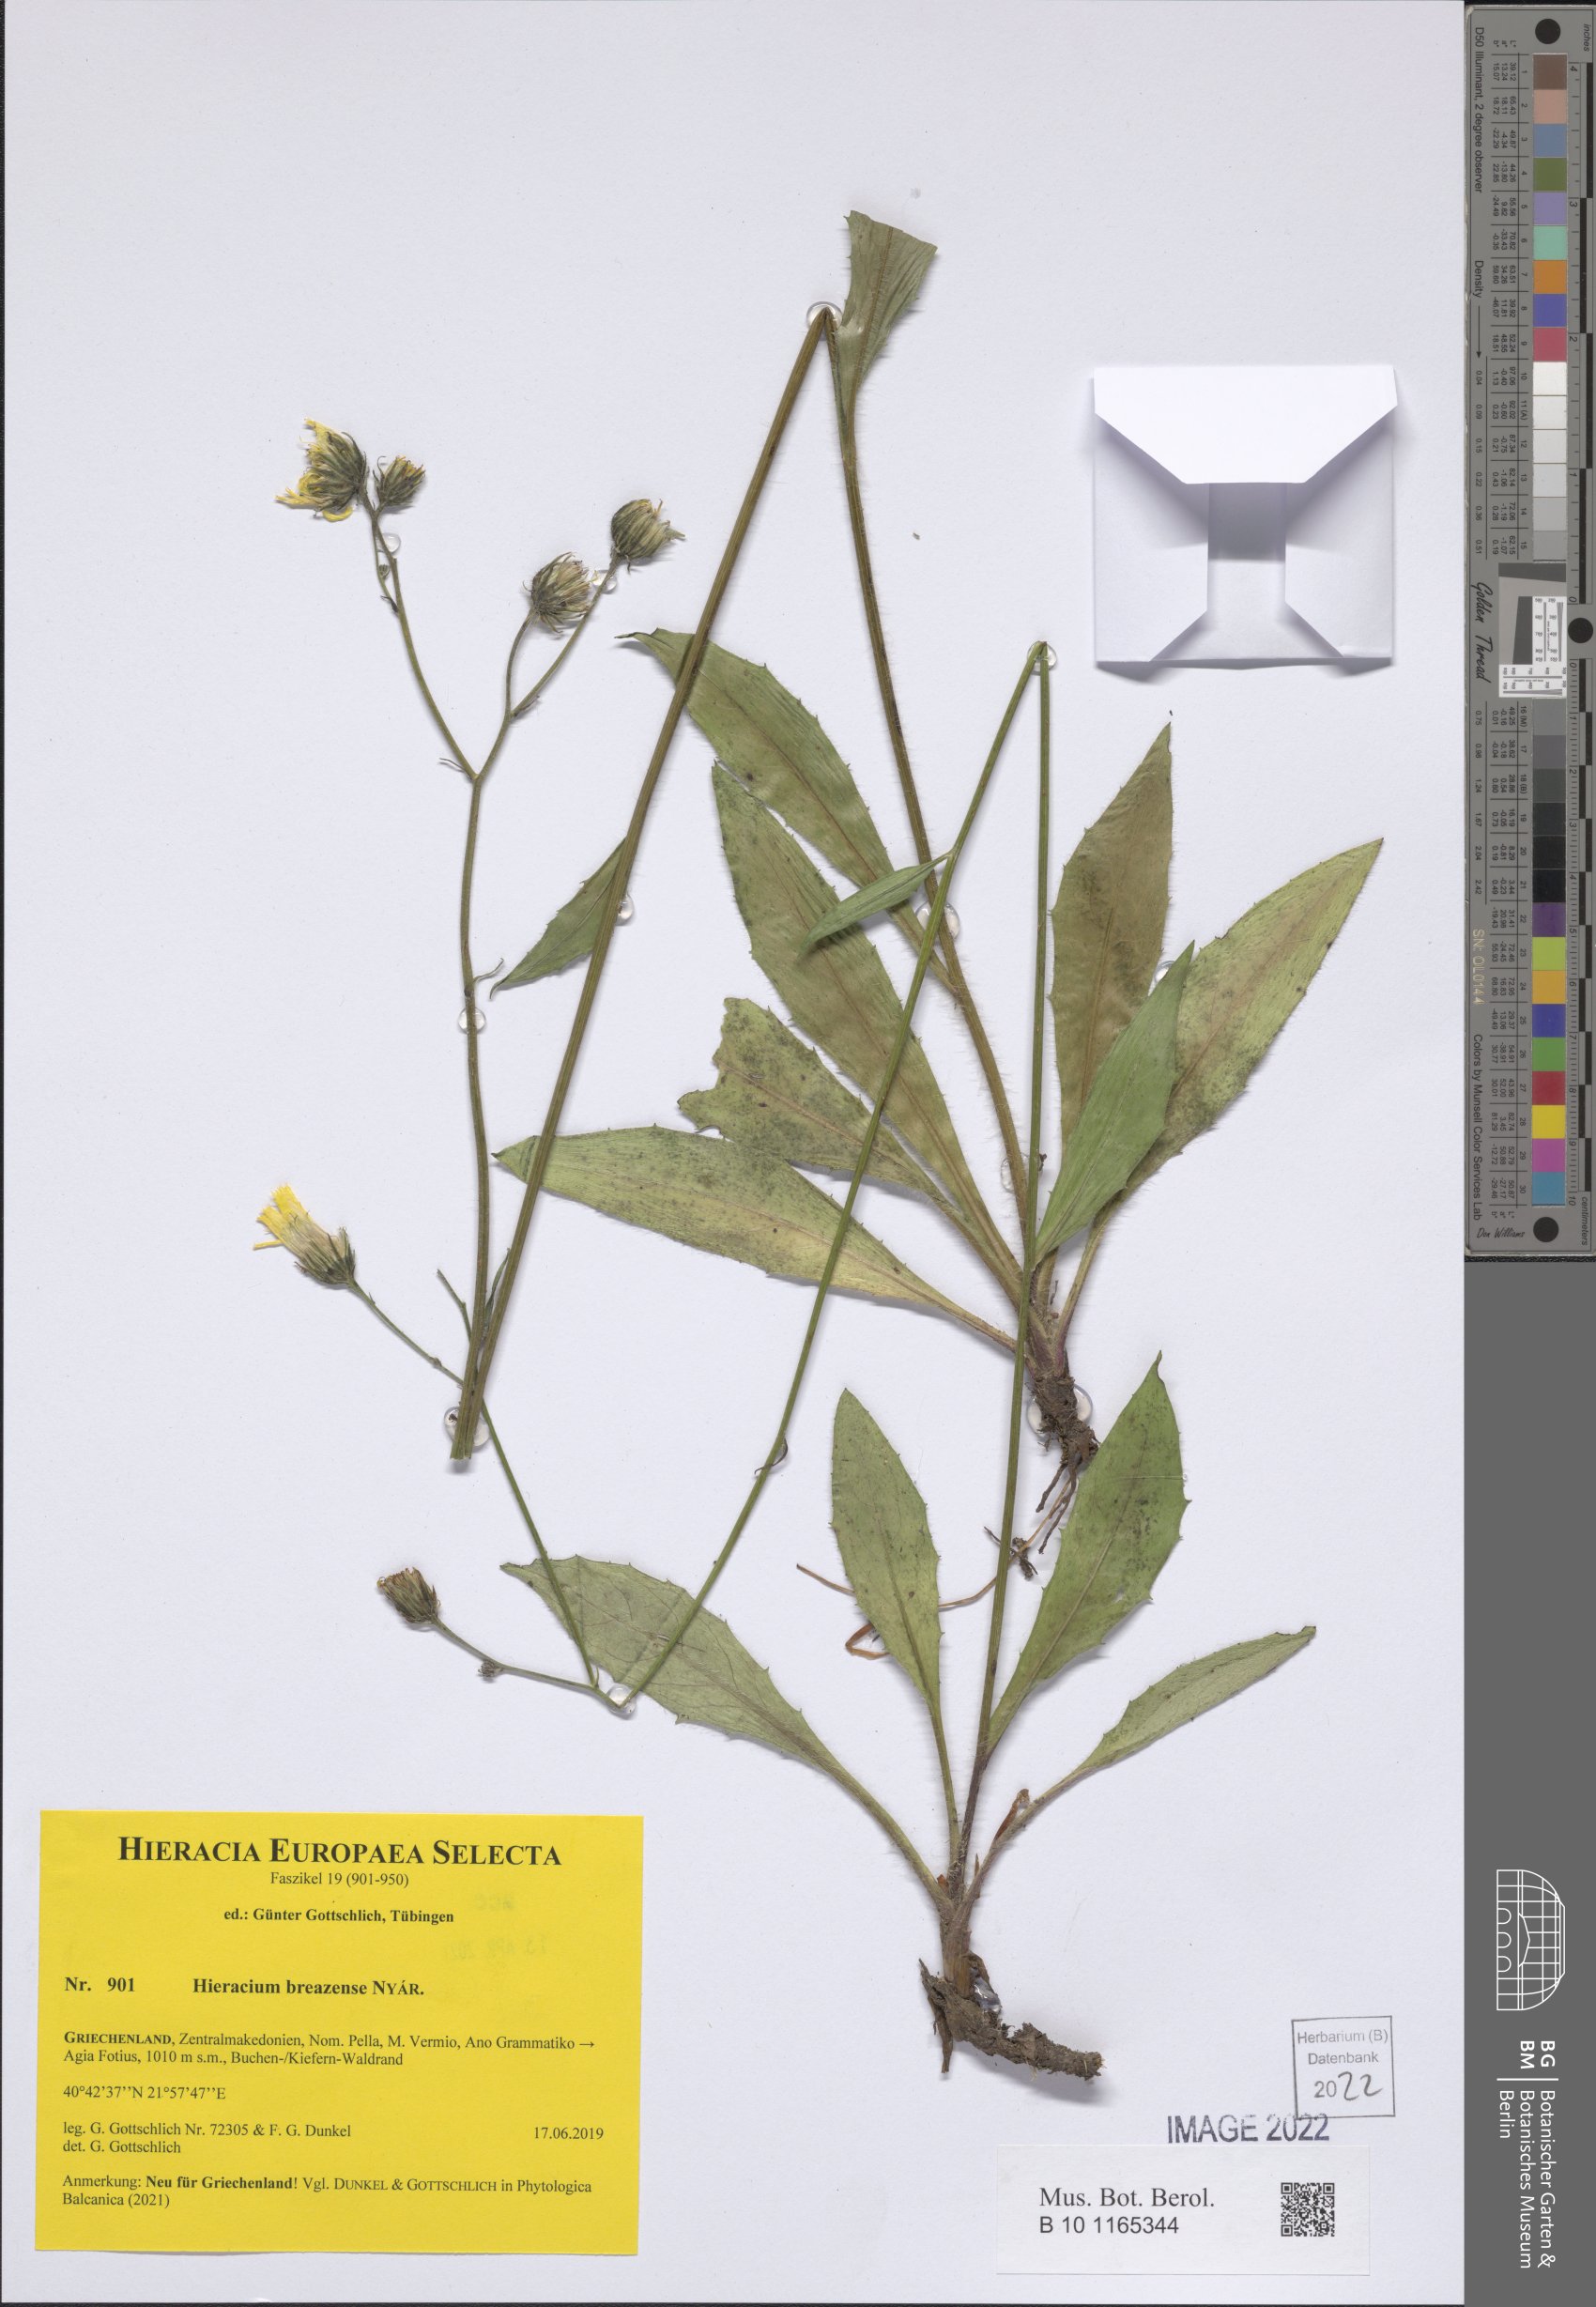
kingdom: Plantae
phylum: Tracheophyta
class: Magnoliopsida
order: Asterales
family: Asteraceae
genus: Hieracium
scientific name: Hieracium breazense
